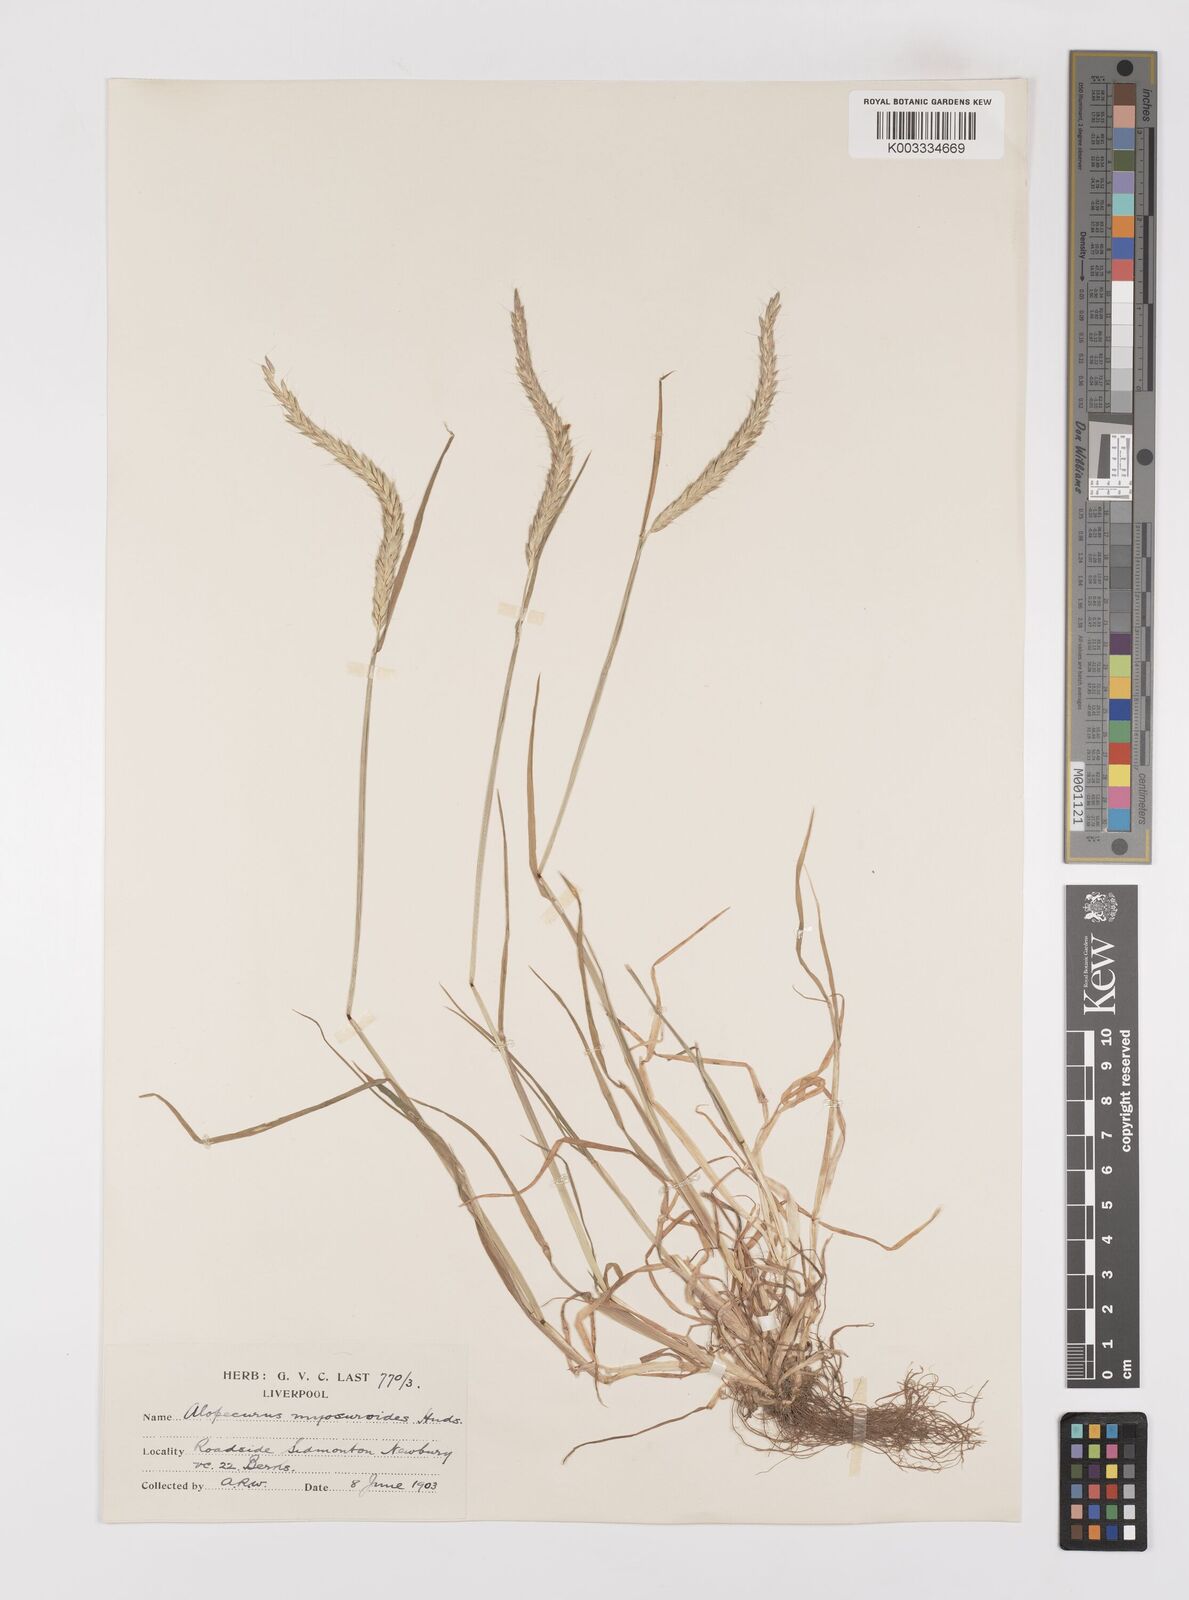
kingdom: Plantae
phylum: Tracheophyta
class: Liliopsida
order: Poales
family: Poaceae
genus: Alopecurus
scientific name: Alopecurus myosuroides
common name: Black-grass
